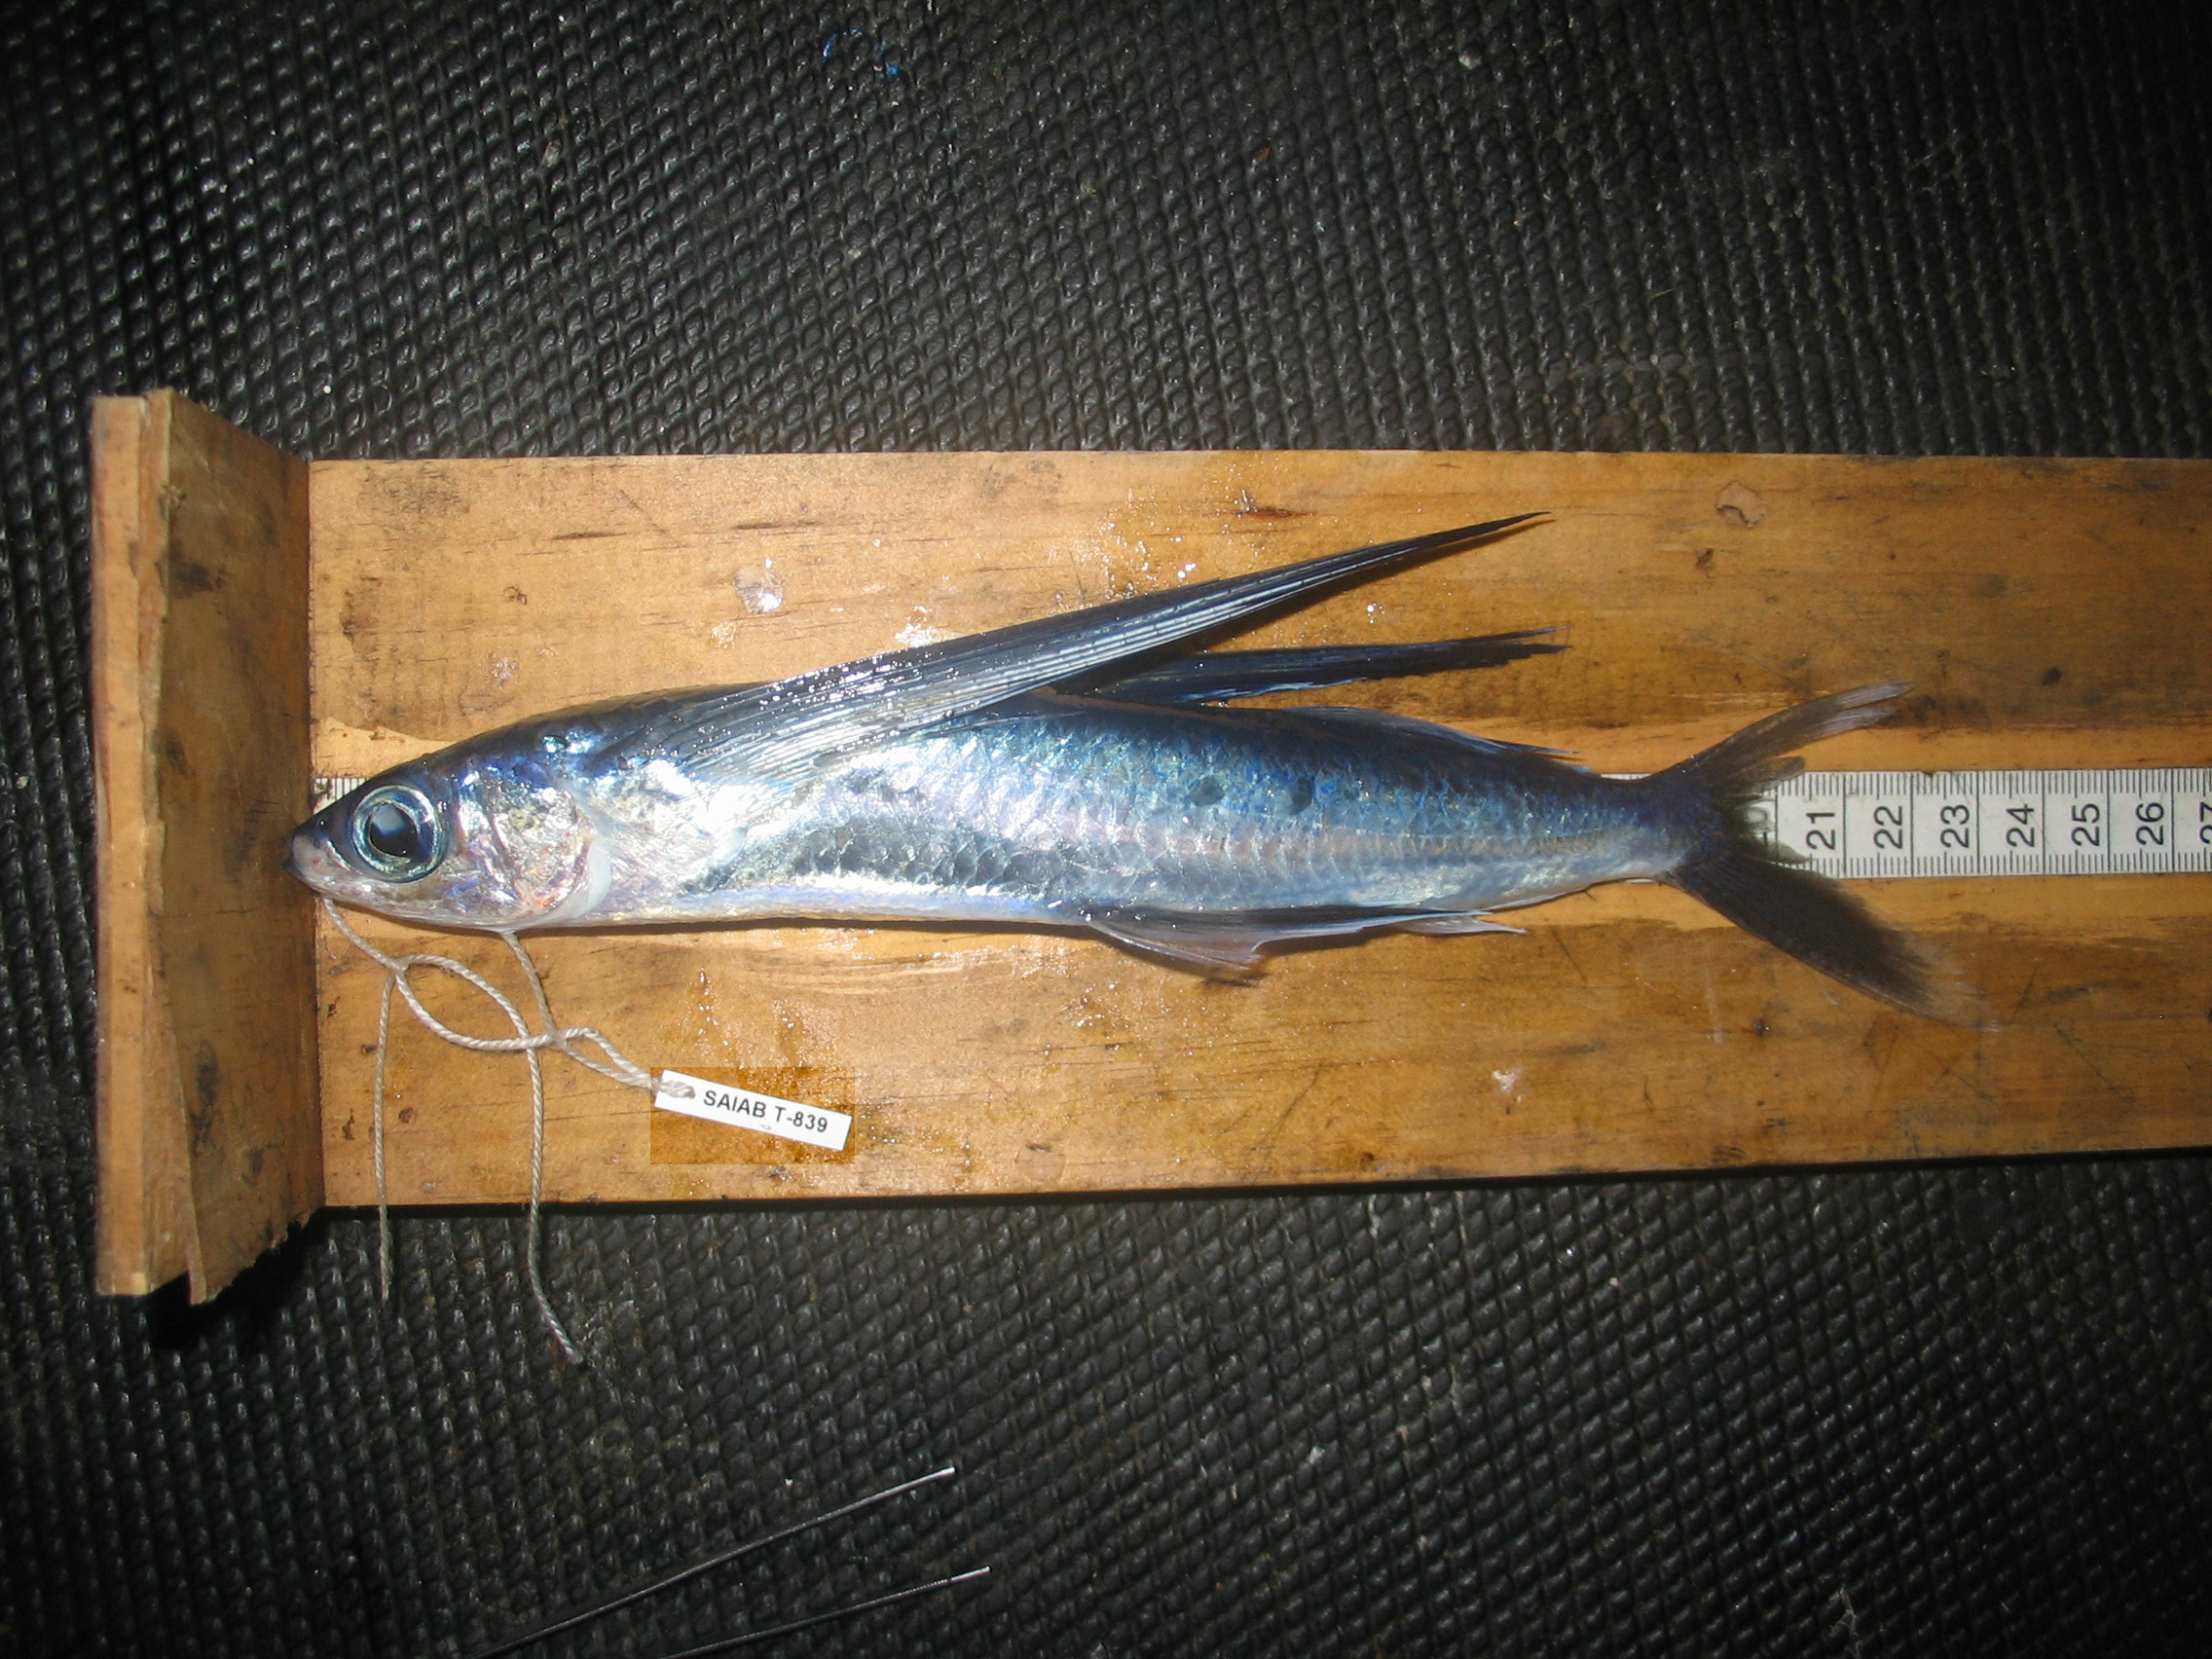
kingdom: Animalia
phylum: Chordata
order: Beloniformes
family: Exocoetidae
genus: Cheilopogon
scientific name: Cheilopogon nigricans
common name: Blacksail flyingfish
